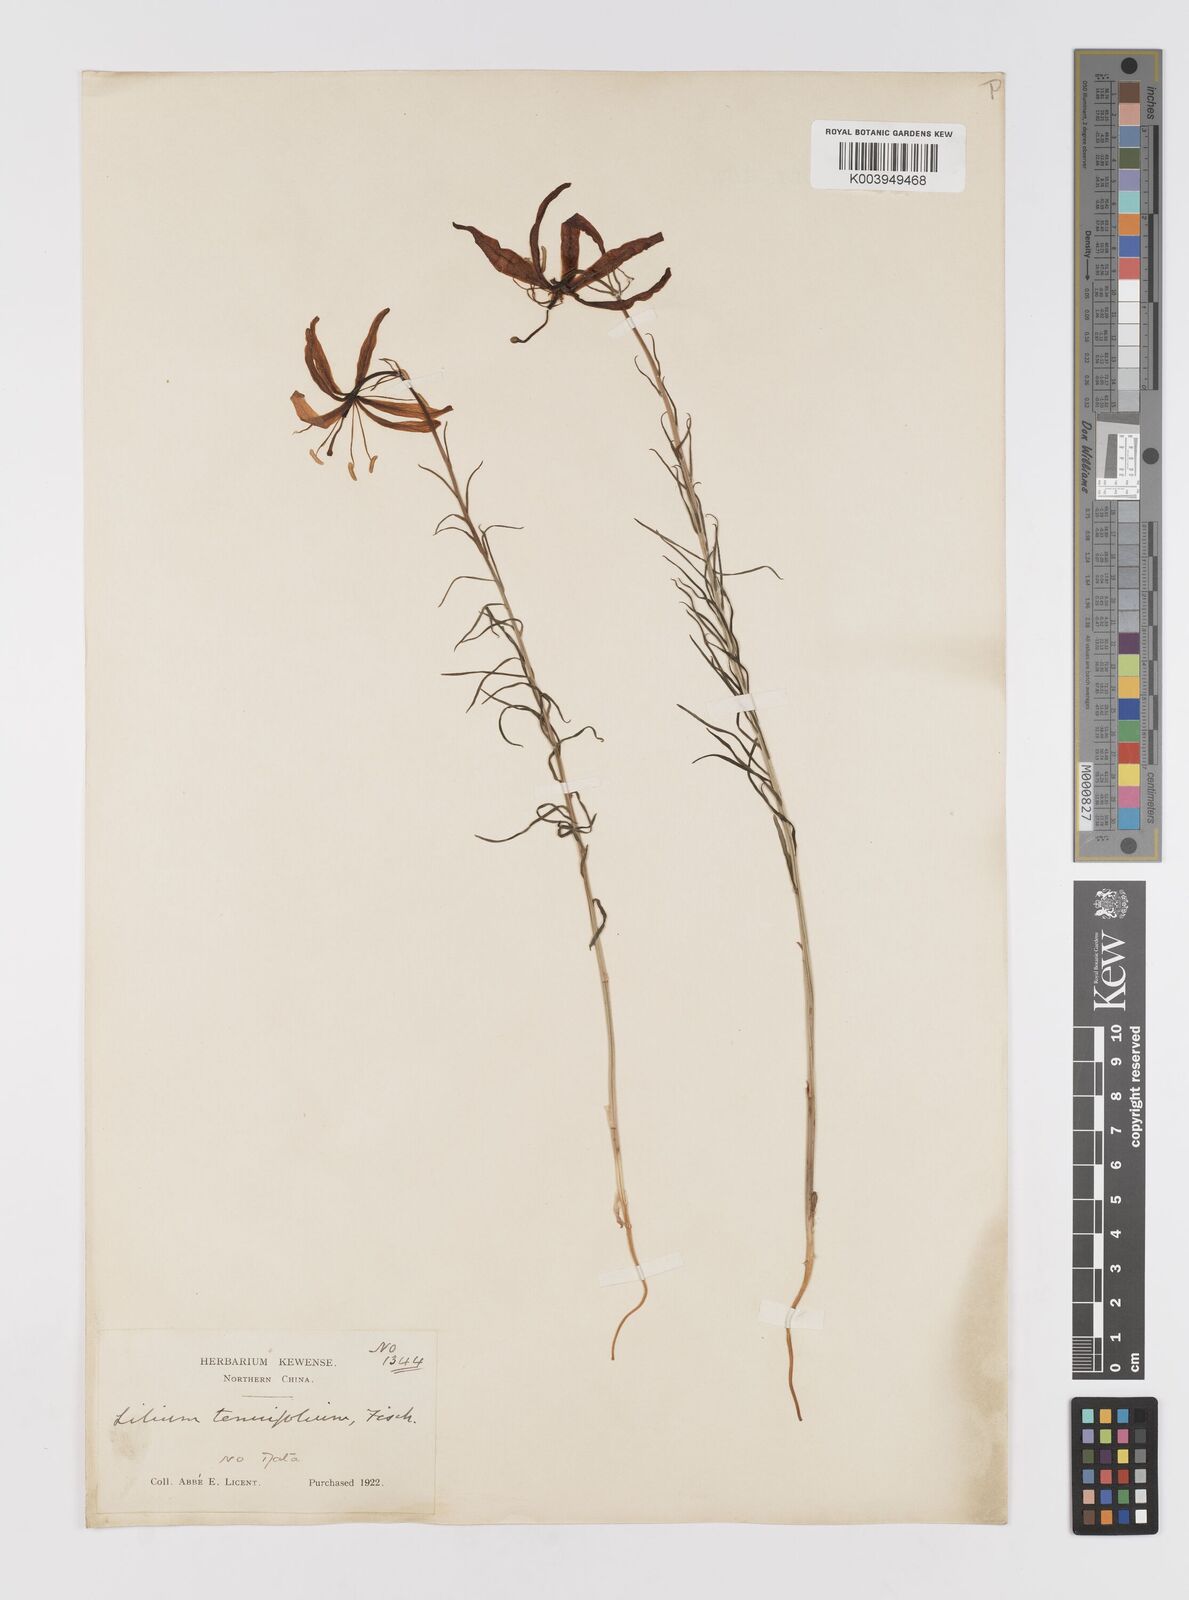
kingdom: Plantae
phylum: Tracheophyta
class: Liliopsida
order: Liliales
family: Liliaceae
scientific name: Liliaceae
